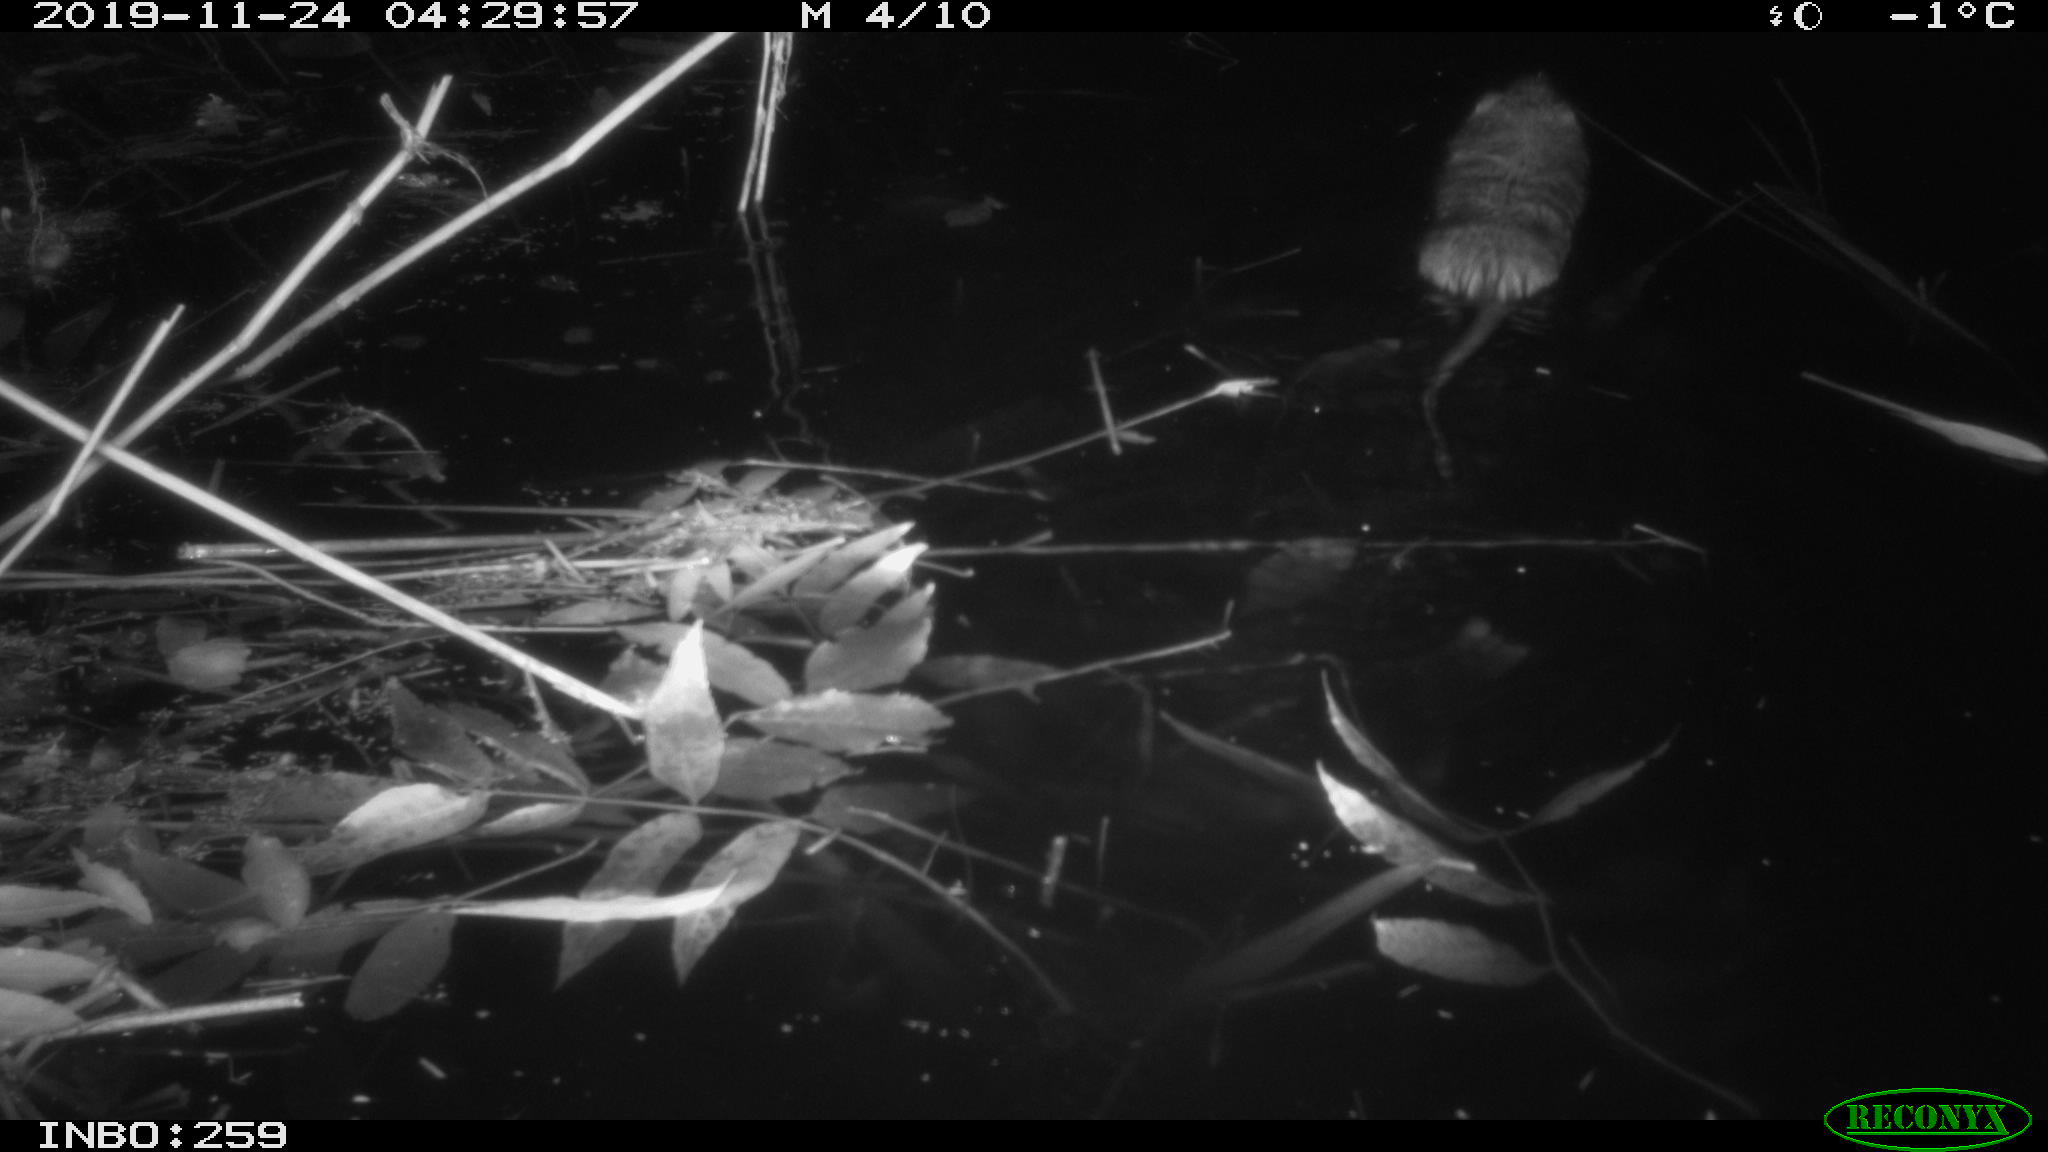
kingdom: Animalia
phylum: Chordata
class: Mammalia
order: Rodentia
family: Cricetidae
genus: Ondatra
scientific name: Ondatra zibethicus
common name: Muskrat
